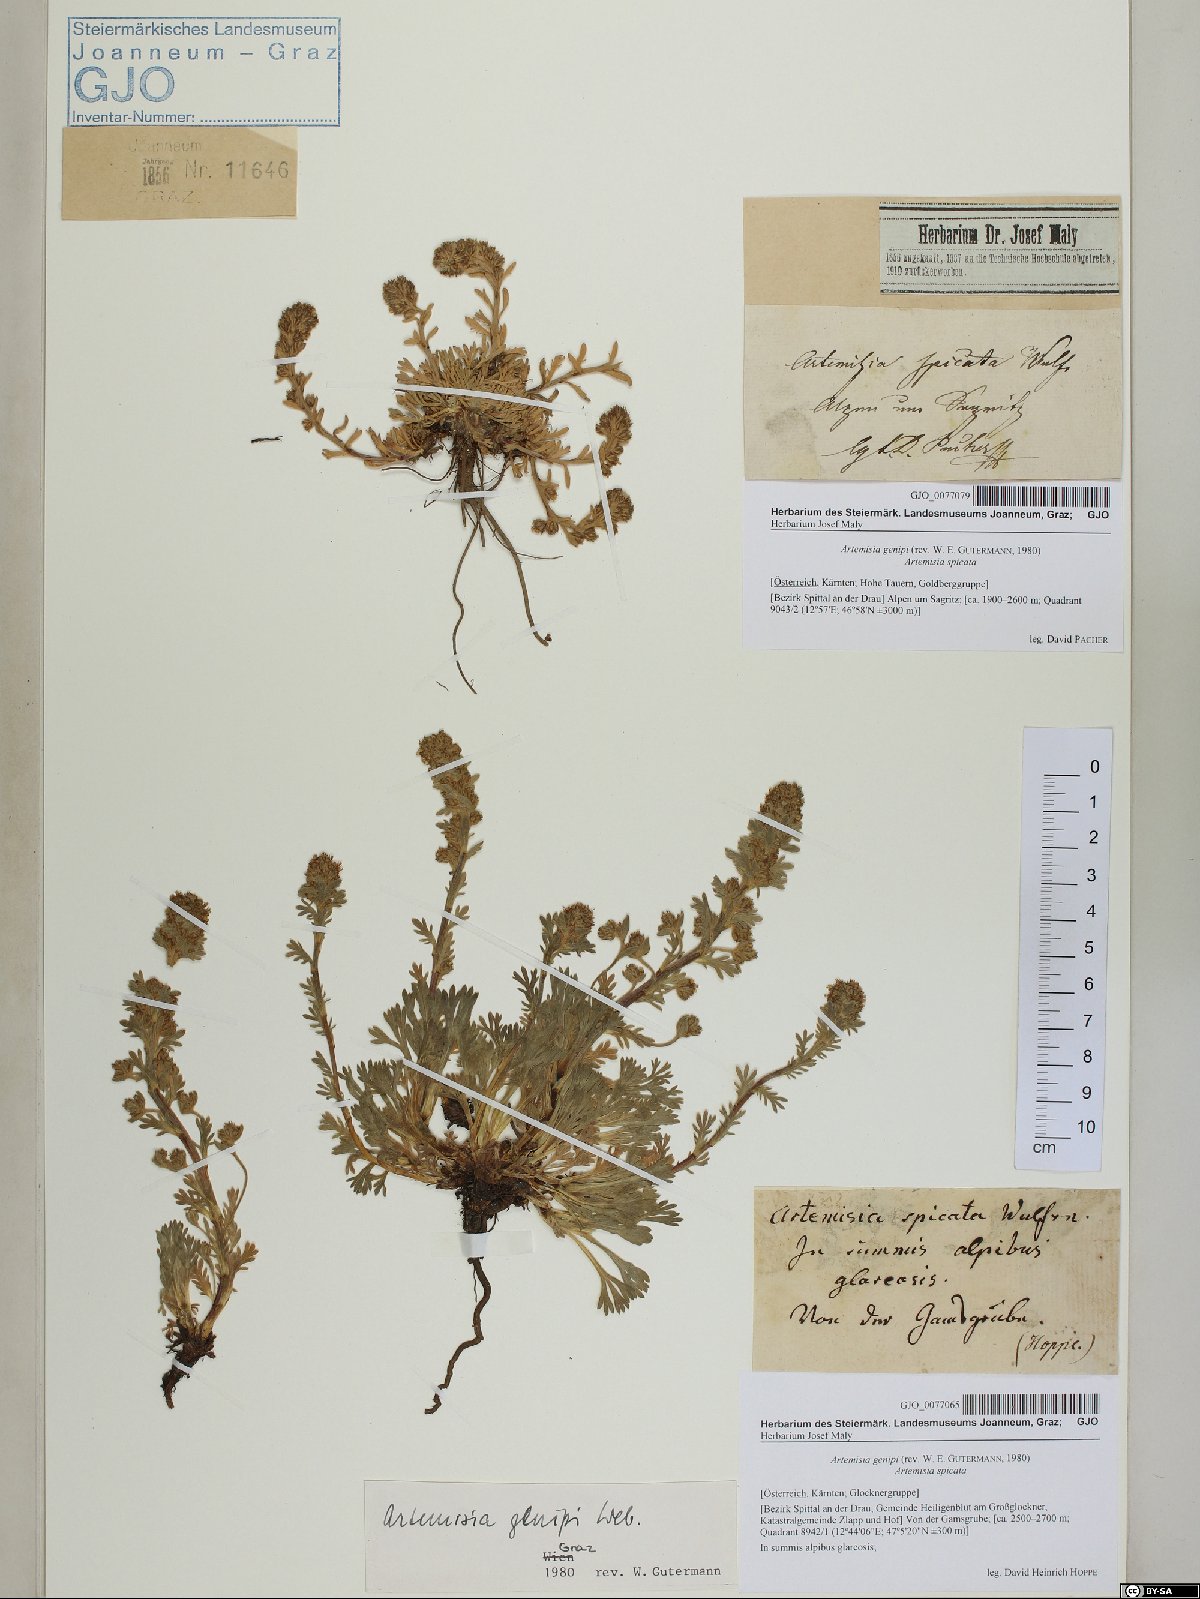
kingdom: Plantae
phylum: Tracheophyta
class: Magnoliopsida
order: Asterales
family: Asteraceae
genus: Artemisia
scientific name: Artemisia genipi
